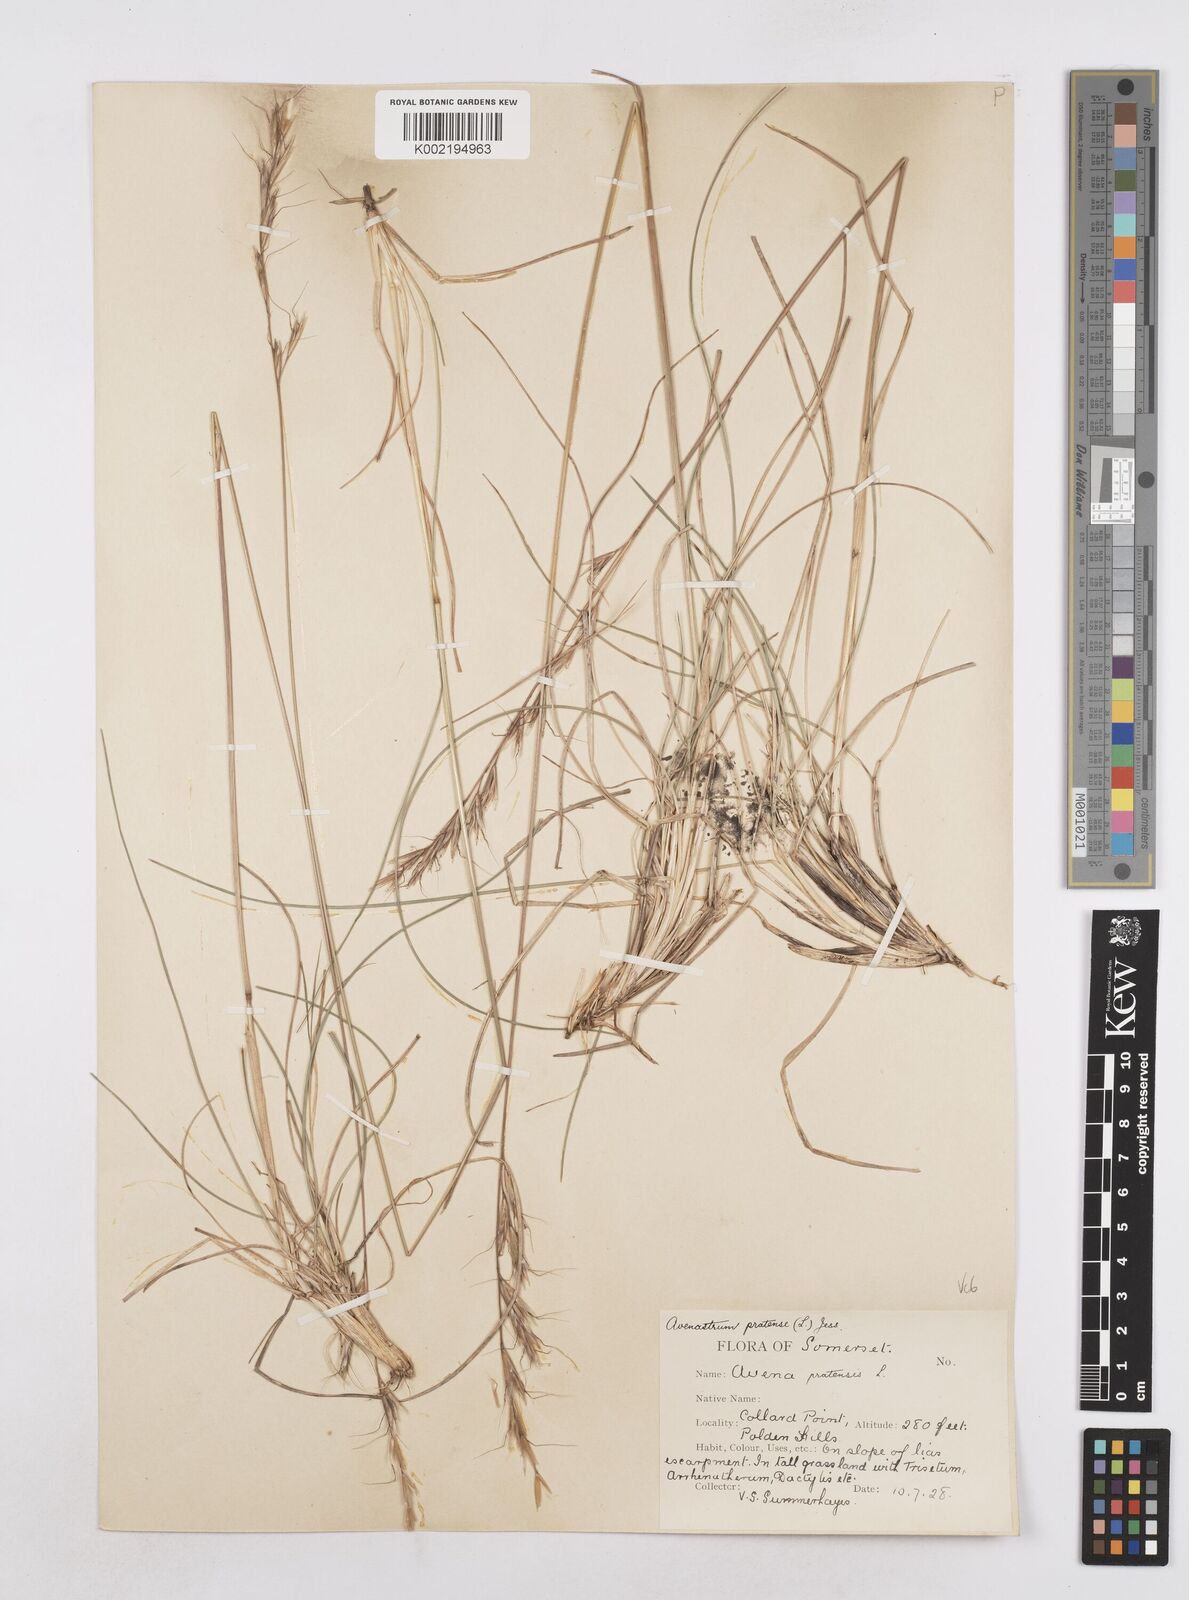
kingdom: Plantae
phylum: Tracheophyta
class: Liliopsida
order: Poales
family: Poaceae
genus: Helictochloa
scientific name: Helictochloa pratensis
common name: Meadow oat grass
